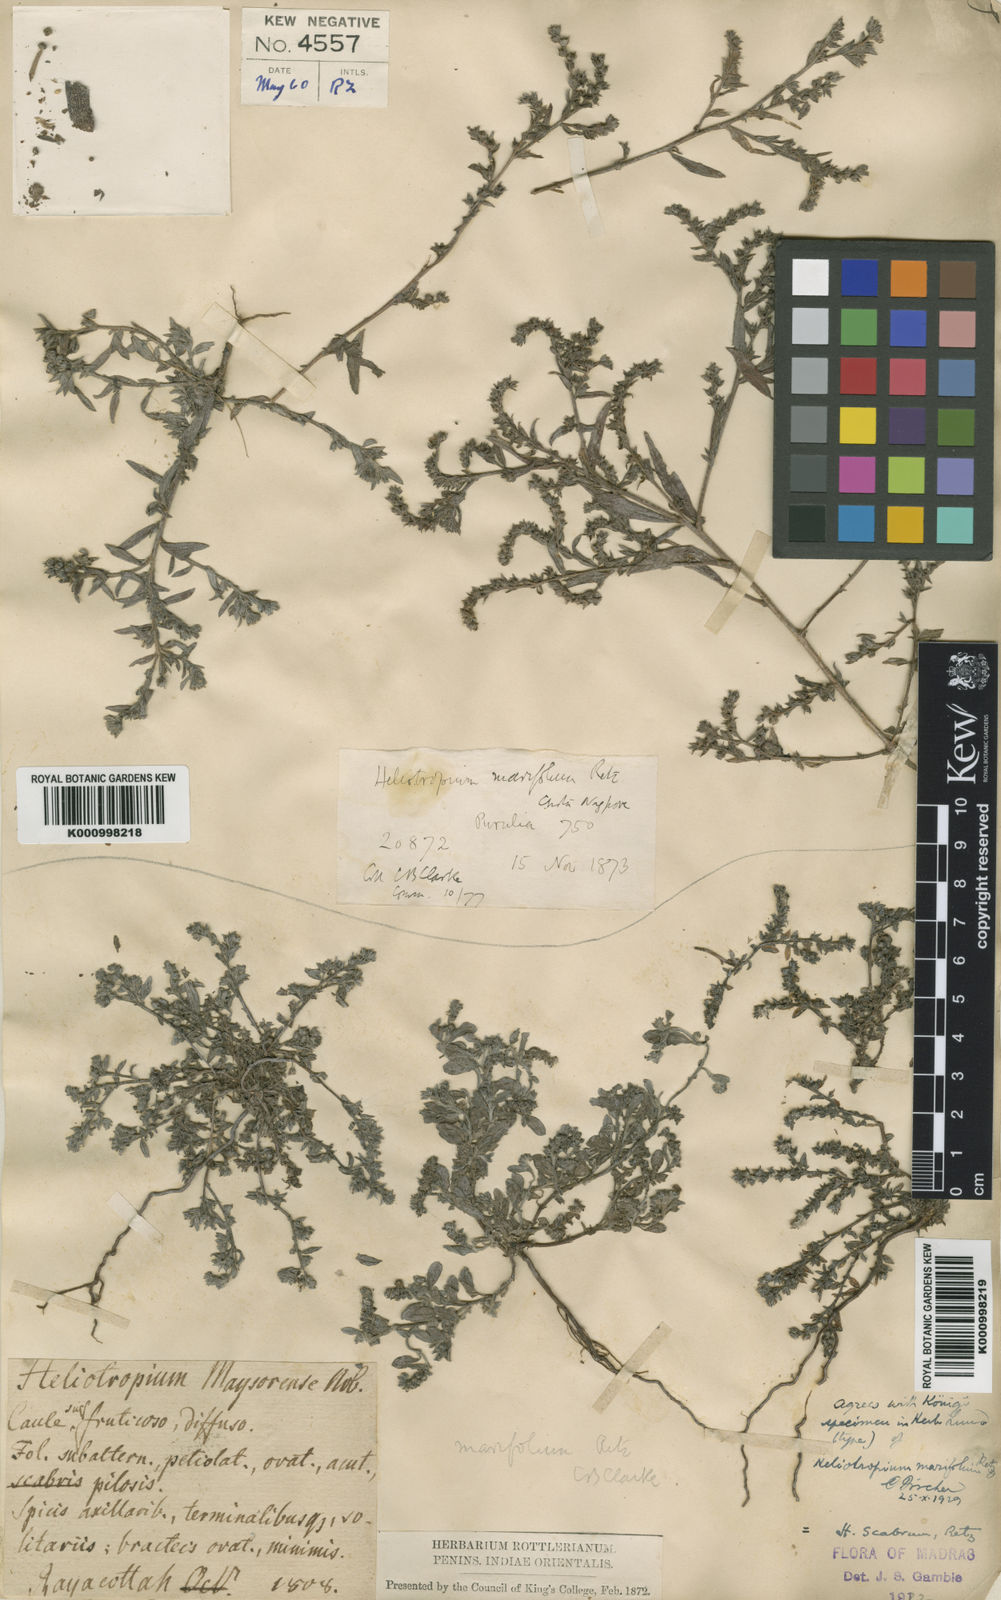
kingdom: Plantae
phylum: Tracheophyta
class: Magnoliopsida
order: Boraginales
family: Heliotropiaceae
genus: Euploca
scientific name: Euploca marifolia
